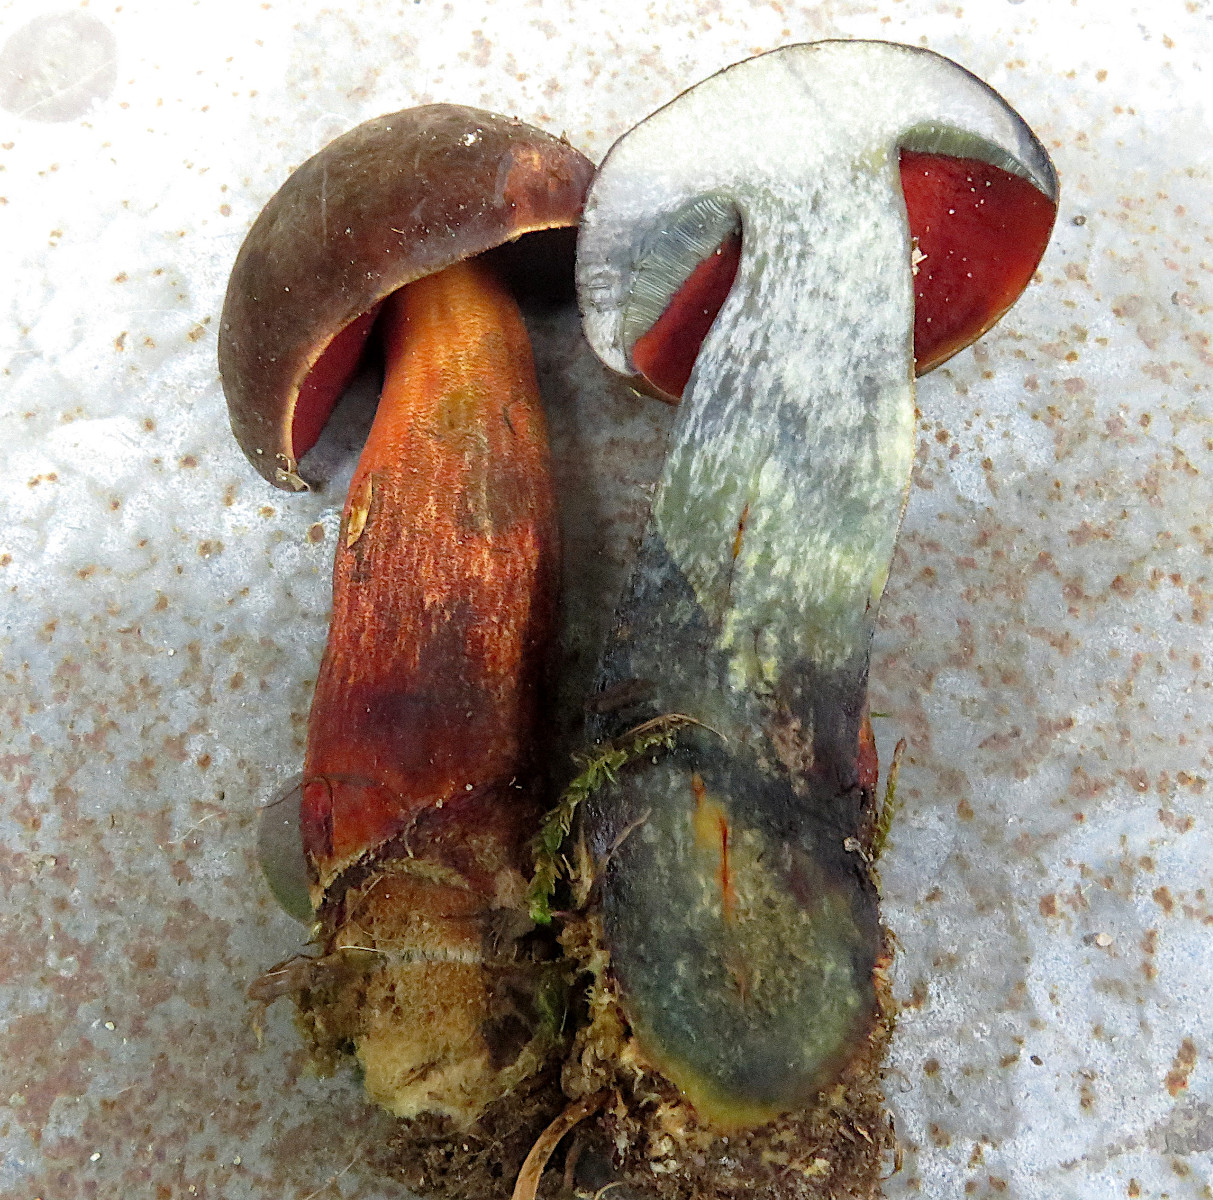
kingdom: Fungi
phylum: Basidiomycota
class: Agaricomycetes
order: Boletales
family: Boletaceae
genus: Neoboletus
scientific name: Neoboletus erythropus
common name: punktstokket indigorørhat
